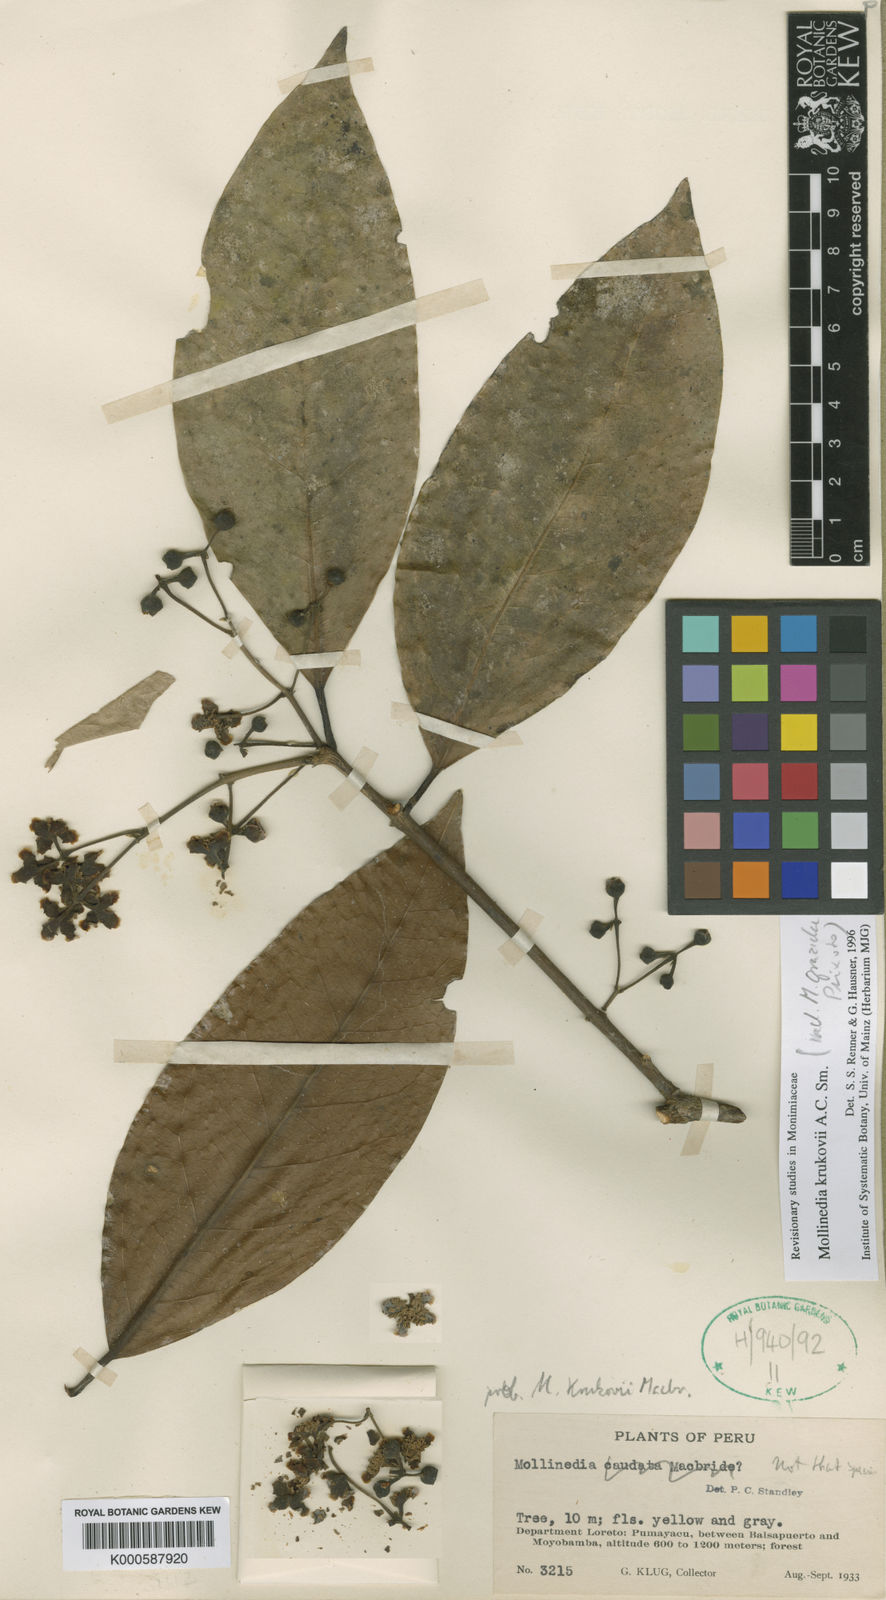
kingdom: Plantae
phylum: Tracheophyta
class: Magnoliopsida
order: Laurales
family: Monimiaceae
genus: Mollinedia
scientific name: Mollinedia ovata
